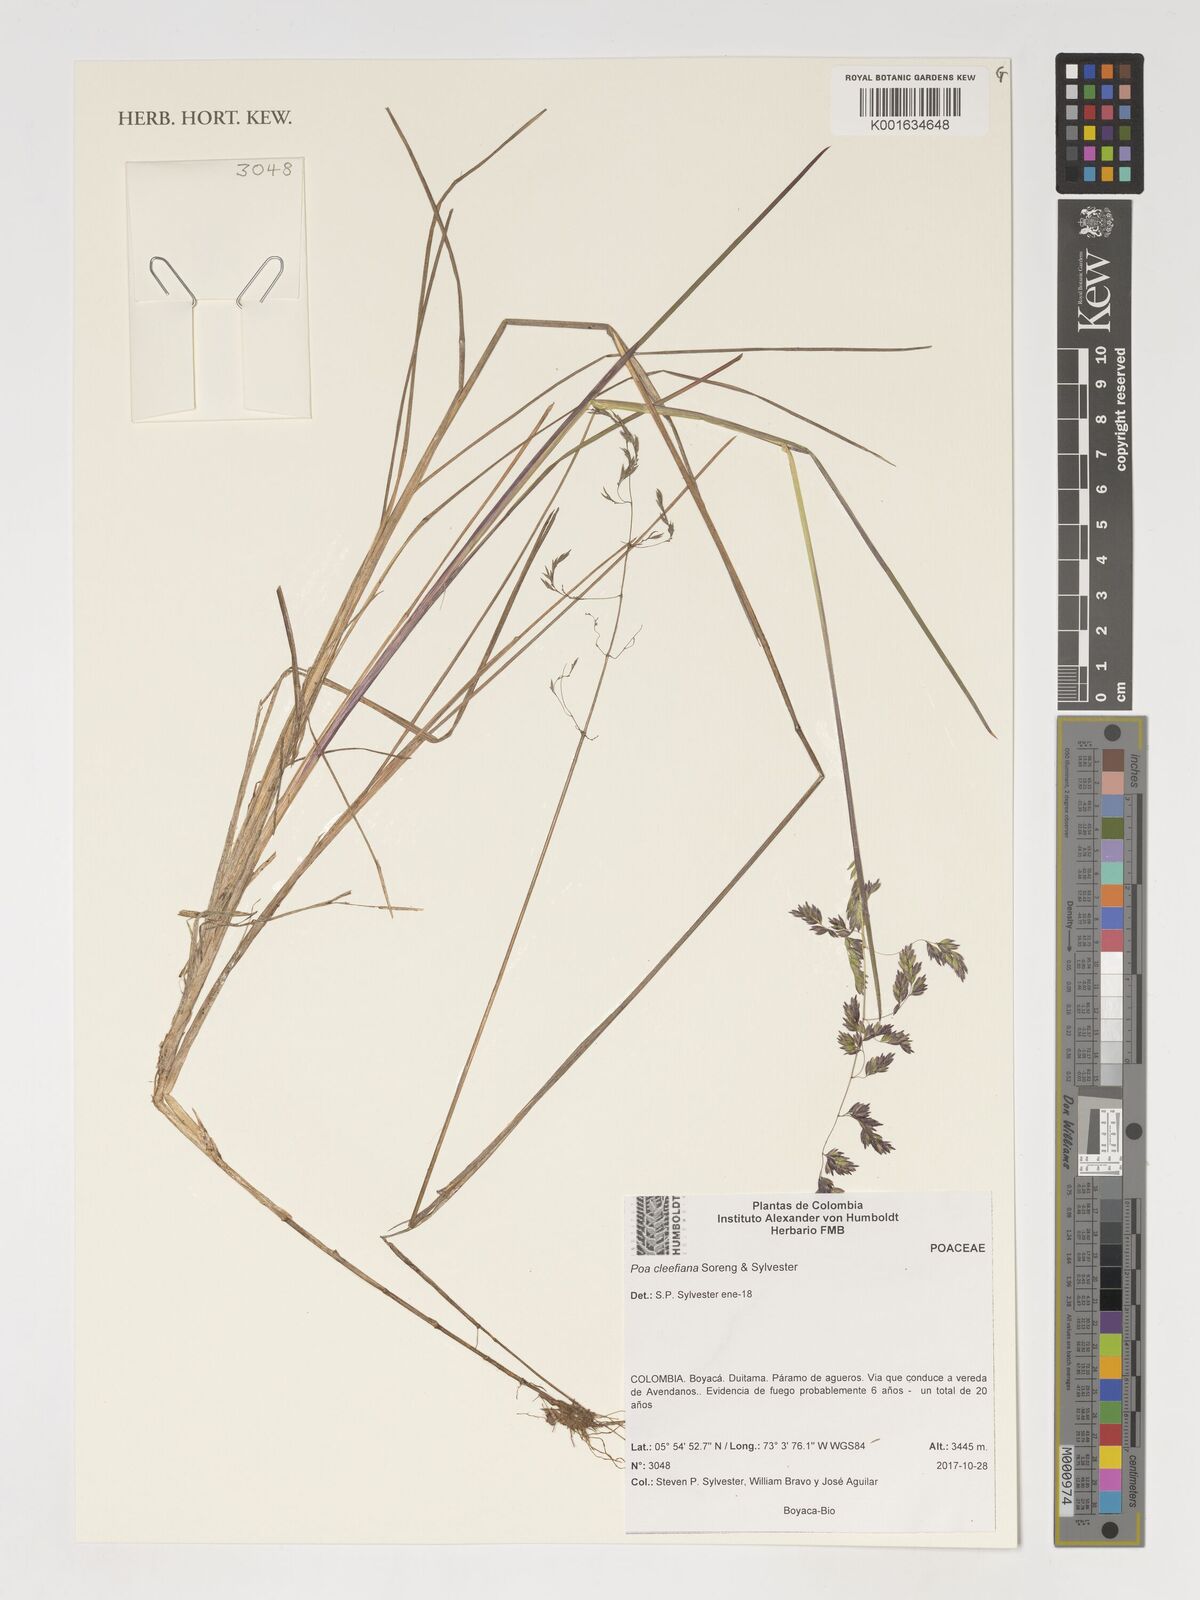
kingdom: Plantae
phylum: Tracheophyta
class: Liliopsida
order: Poales
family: Poaceae
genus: Poa
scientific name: Poa
